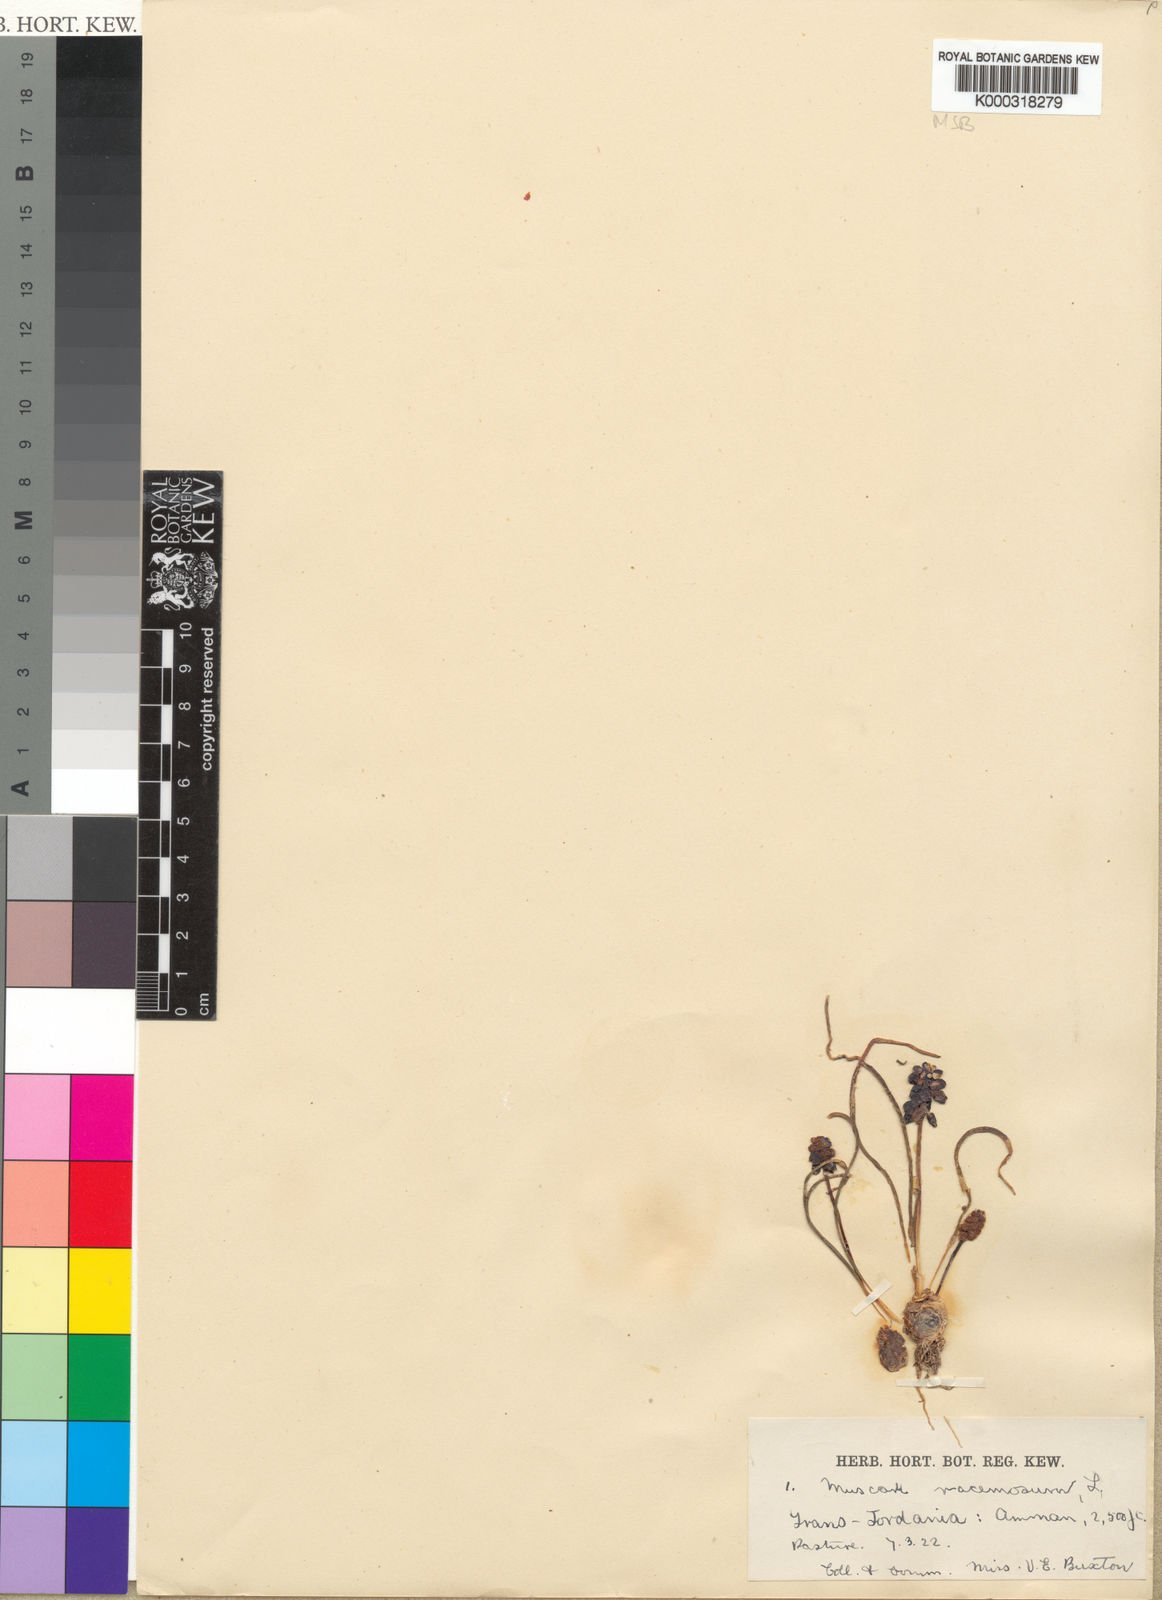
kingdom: Plantae
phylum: Tracheophyta
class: Liliopsida
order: Asparagales
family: Asparagaceae
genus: Muscari
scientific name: Muscari neglectum
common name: Grape-hyacinth
